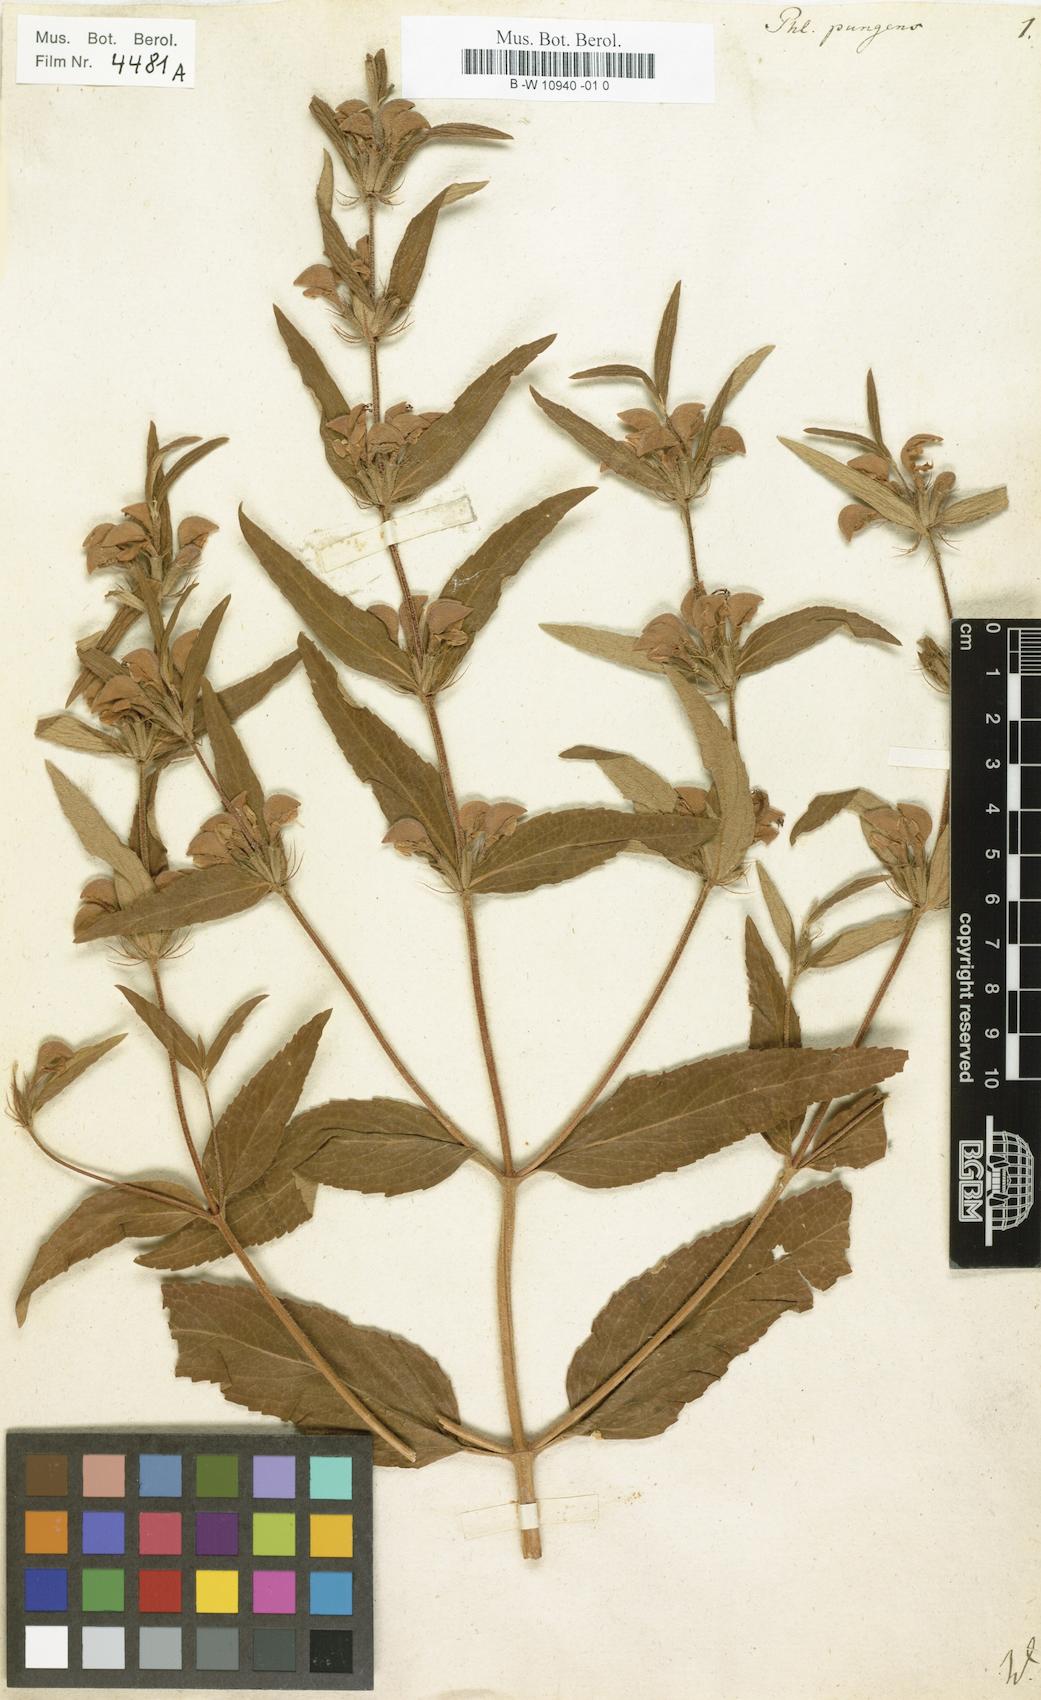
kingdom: Plantae
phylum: Tracheophyta
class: Magnoliopsida
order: Lamiales
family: Lamiaceae
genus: Phlomis
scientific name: Phlomis herba-venti
